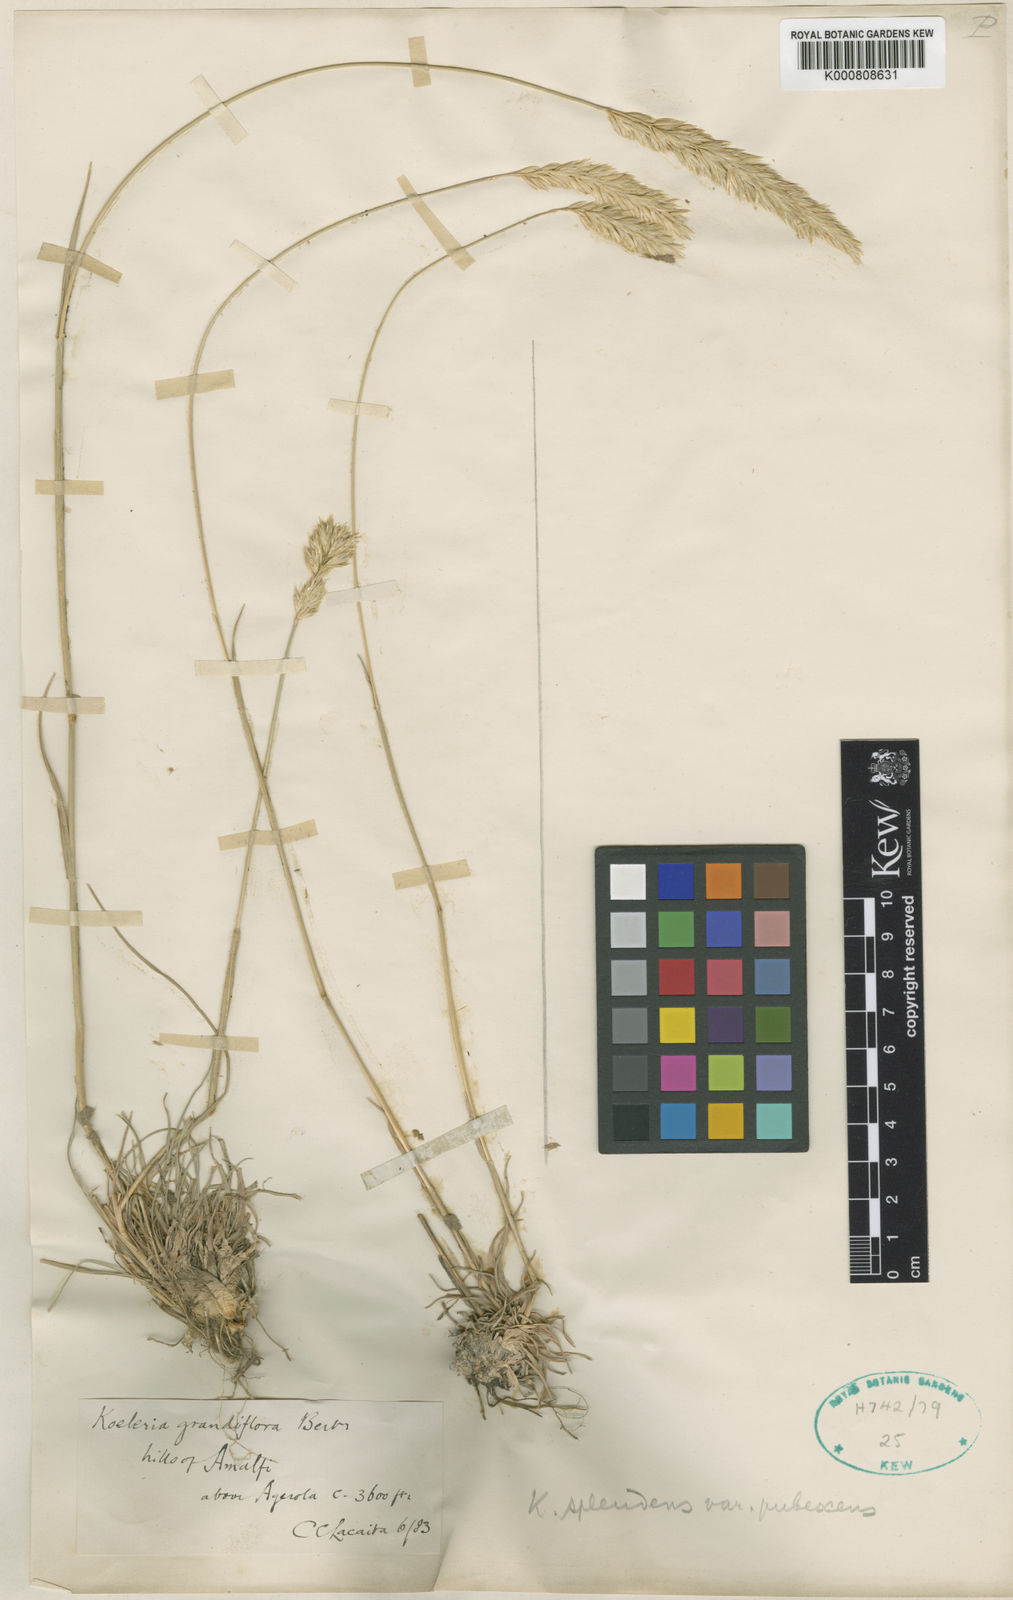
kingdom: Plantae
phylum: Tracheophyta
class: Liliopsida
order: Poales
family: Poaceae
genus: Koeleria
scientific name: Koeleria splendens
